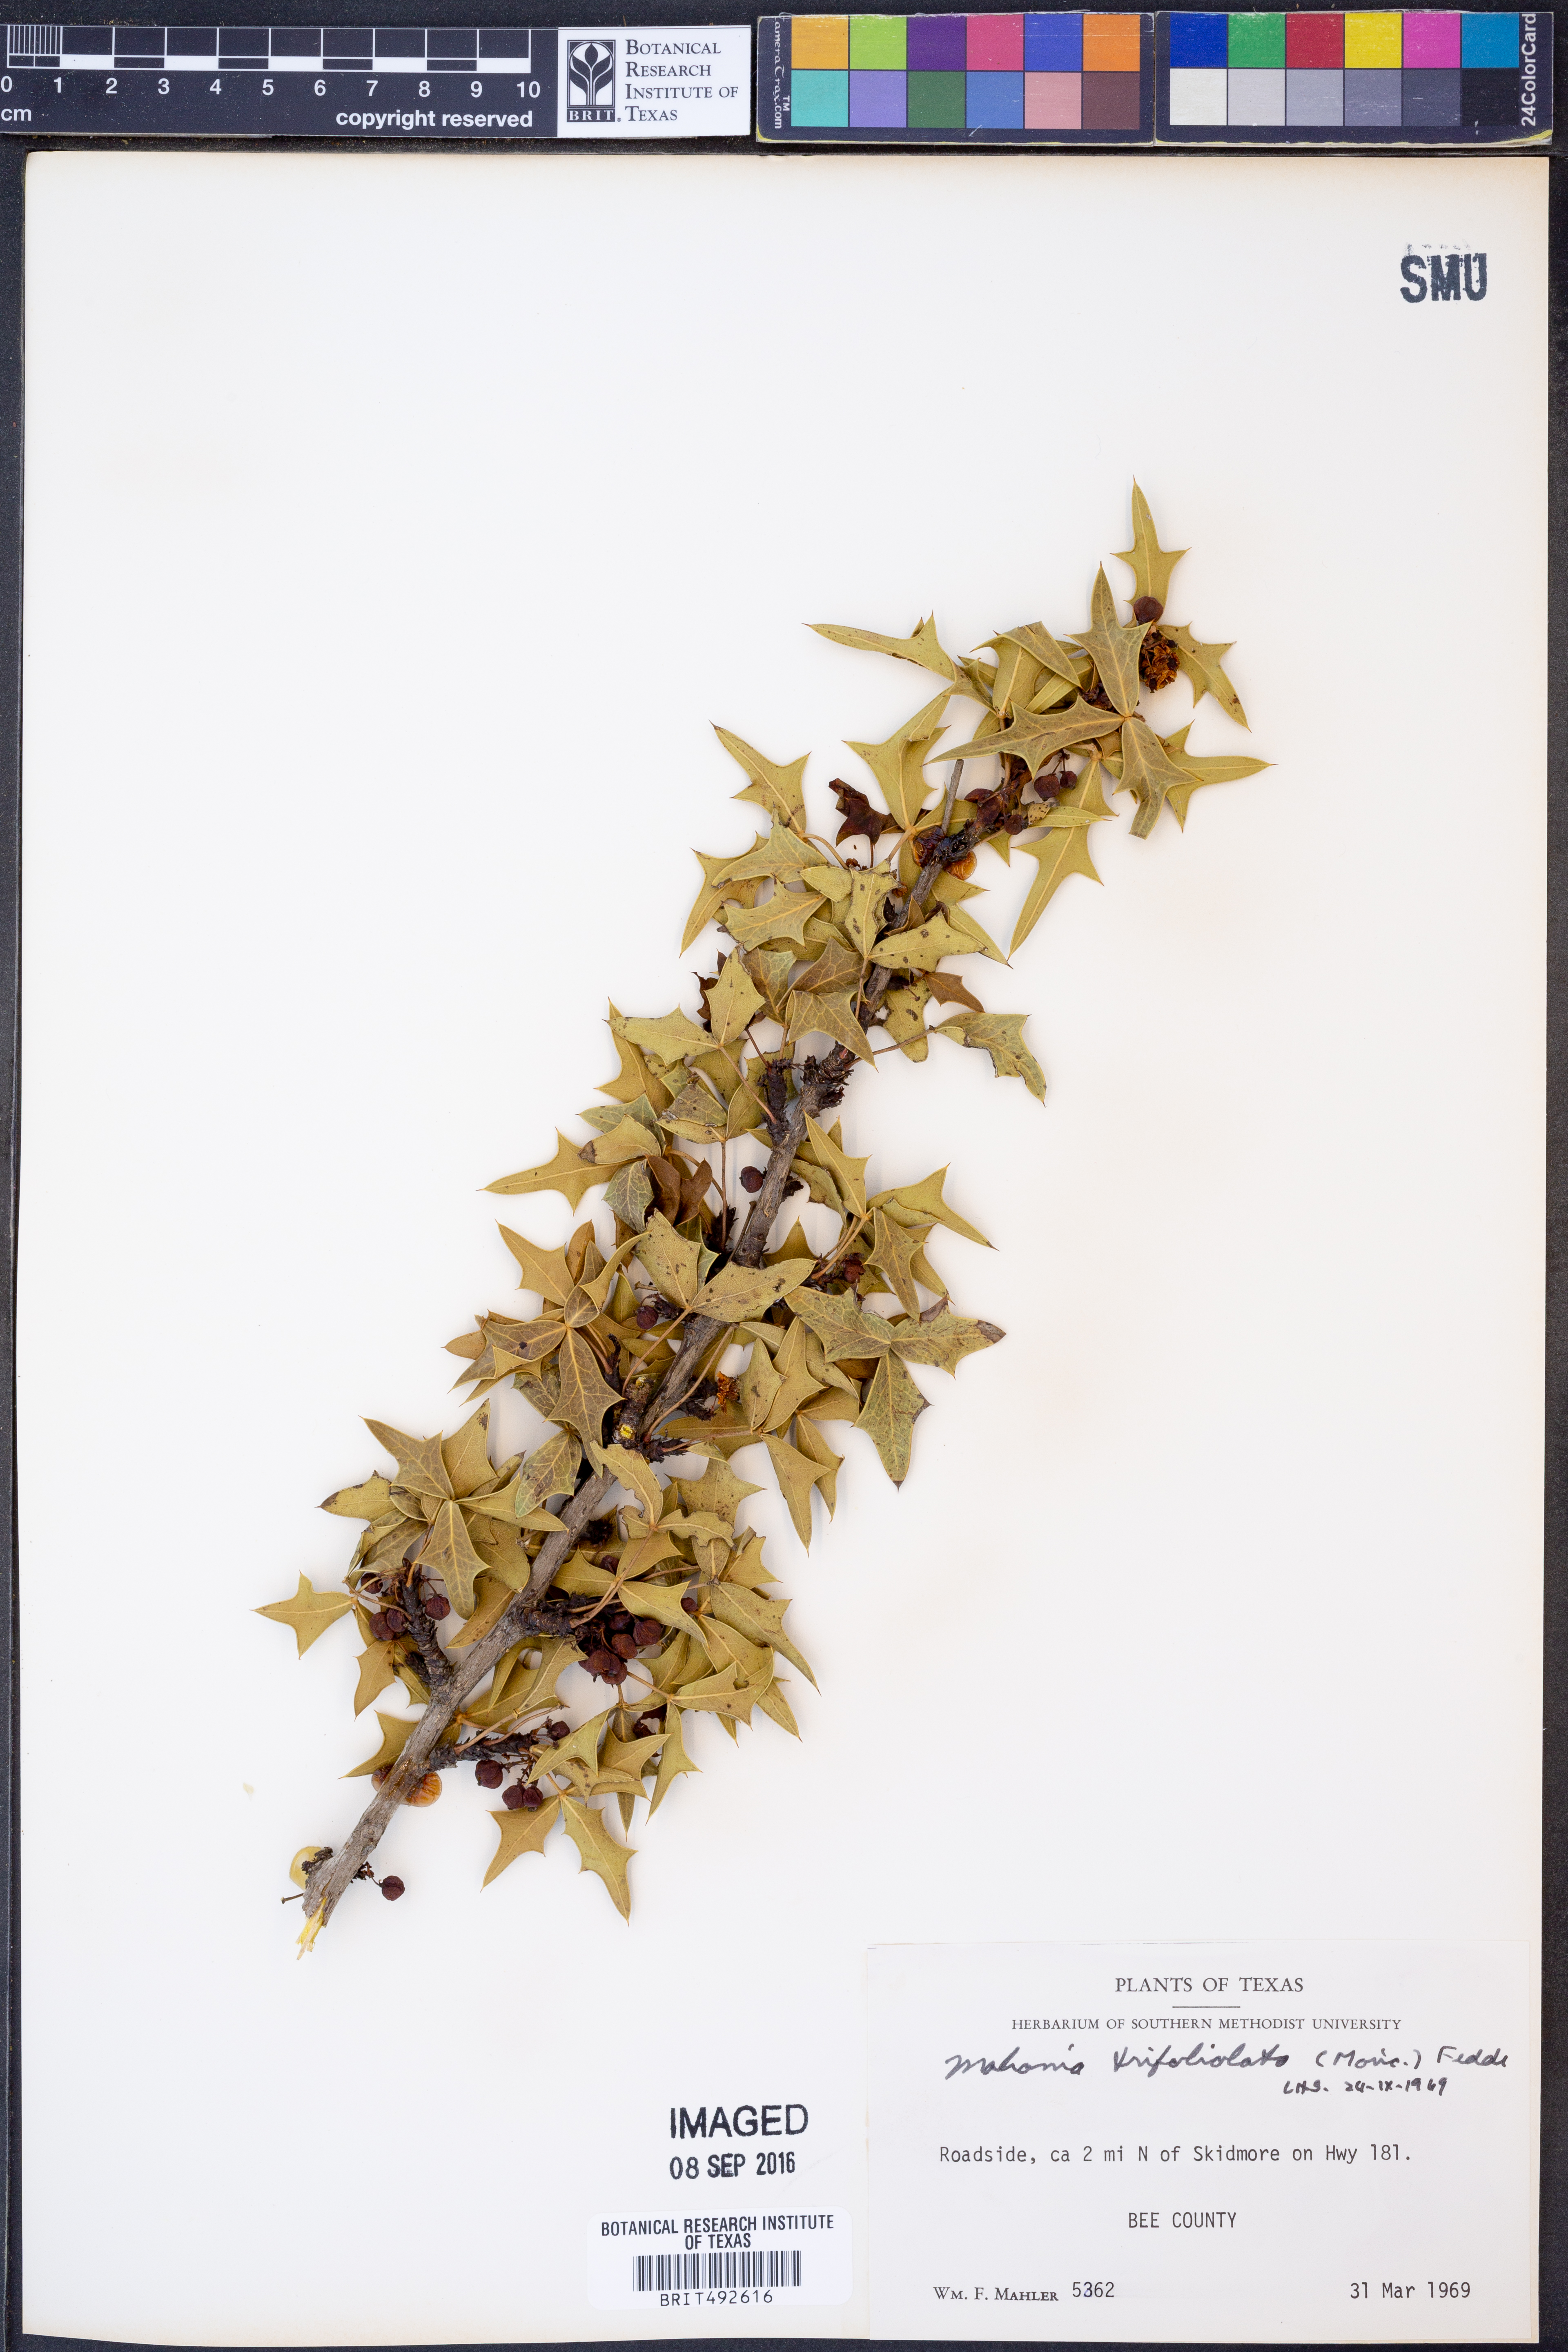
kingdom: Plantae
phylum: Tracheophyta
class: Magnoliopsida
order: Ranunculales
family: Berberidaceae
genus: Alloberberis
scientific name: Alloberberis trifoliolata
